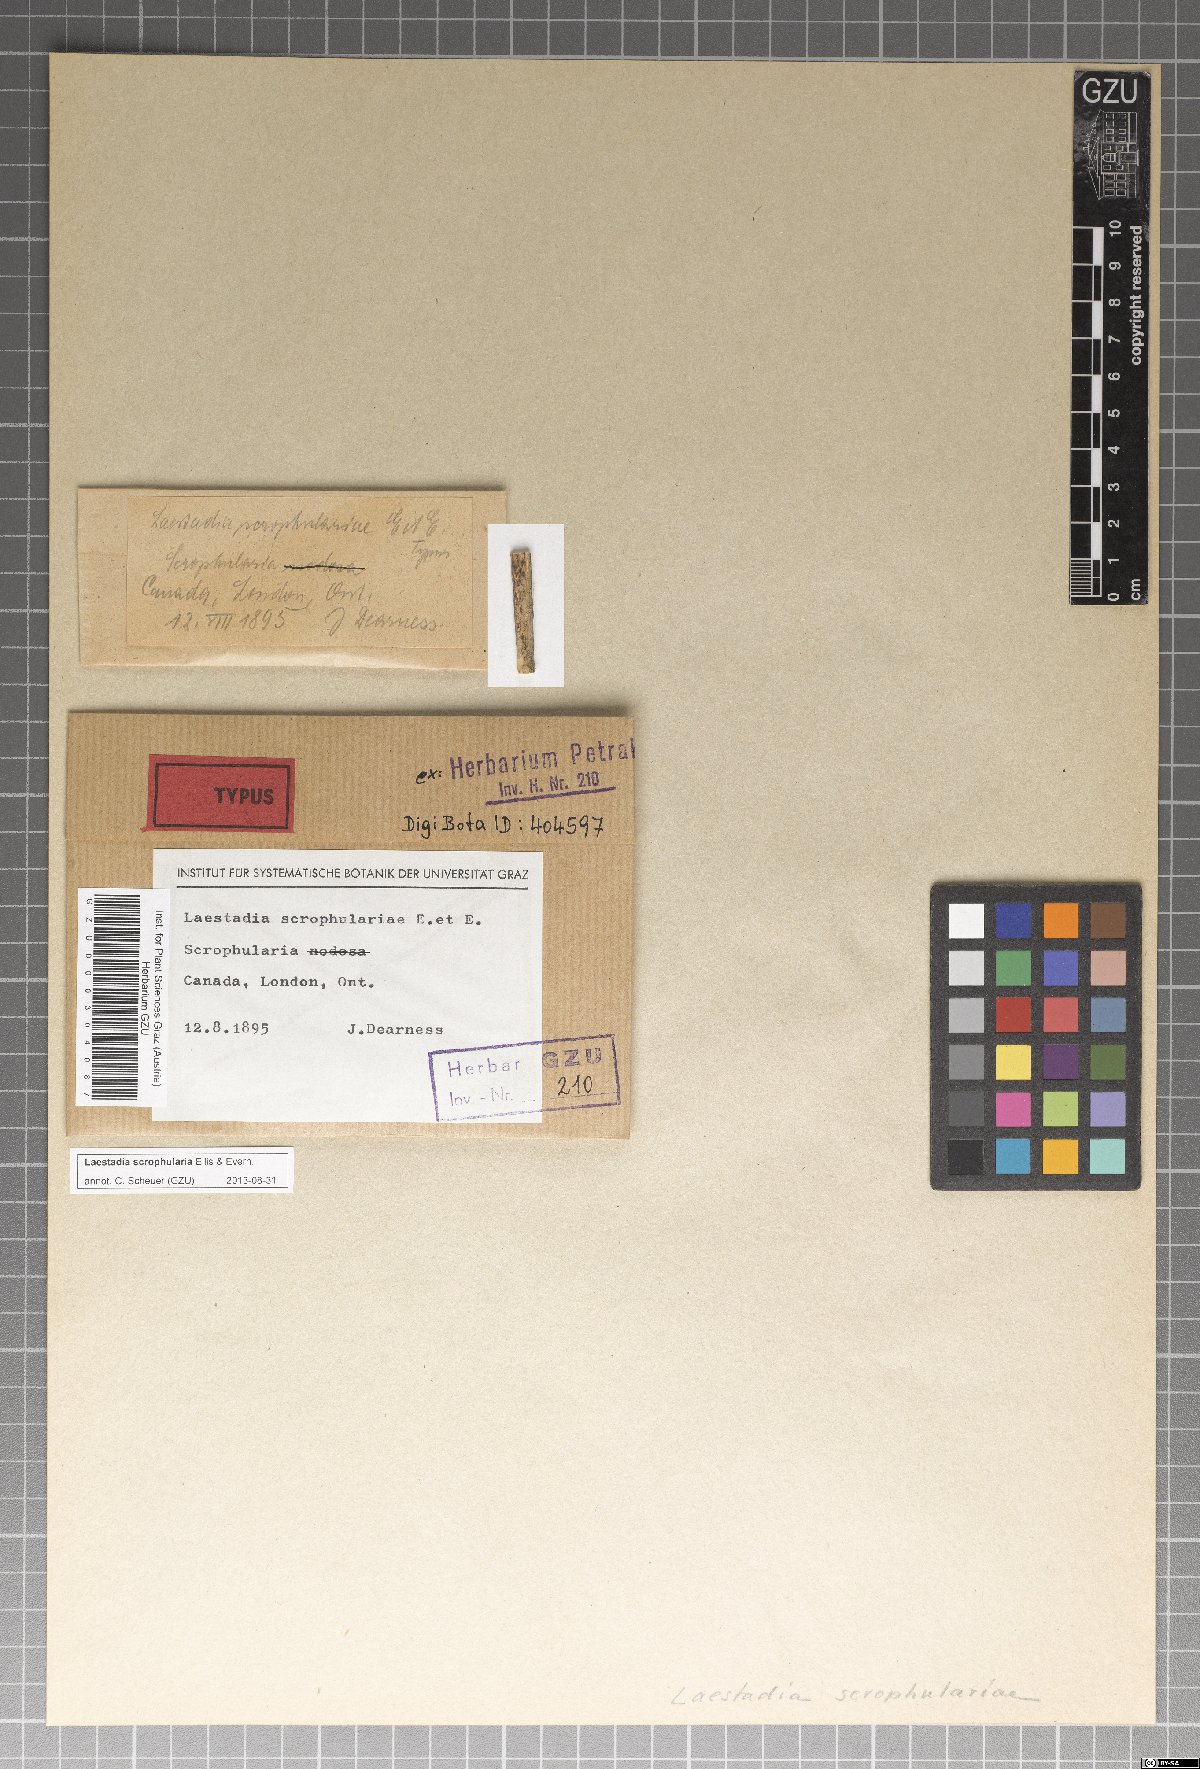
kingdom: Fungi
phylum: Ascomycota
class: Sordariomycetes
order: Diaporthales
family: Gnomoniaceae
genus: Laestadia
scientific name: Laestadia
